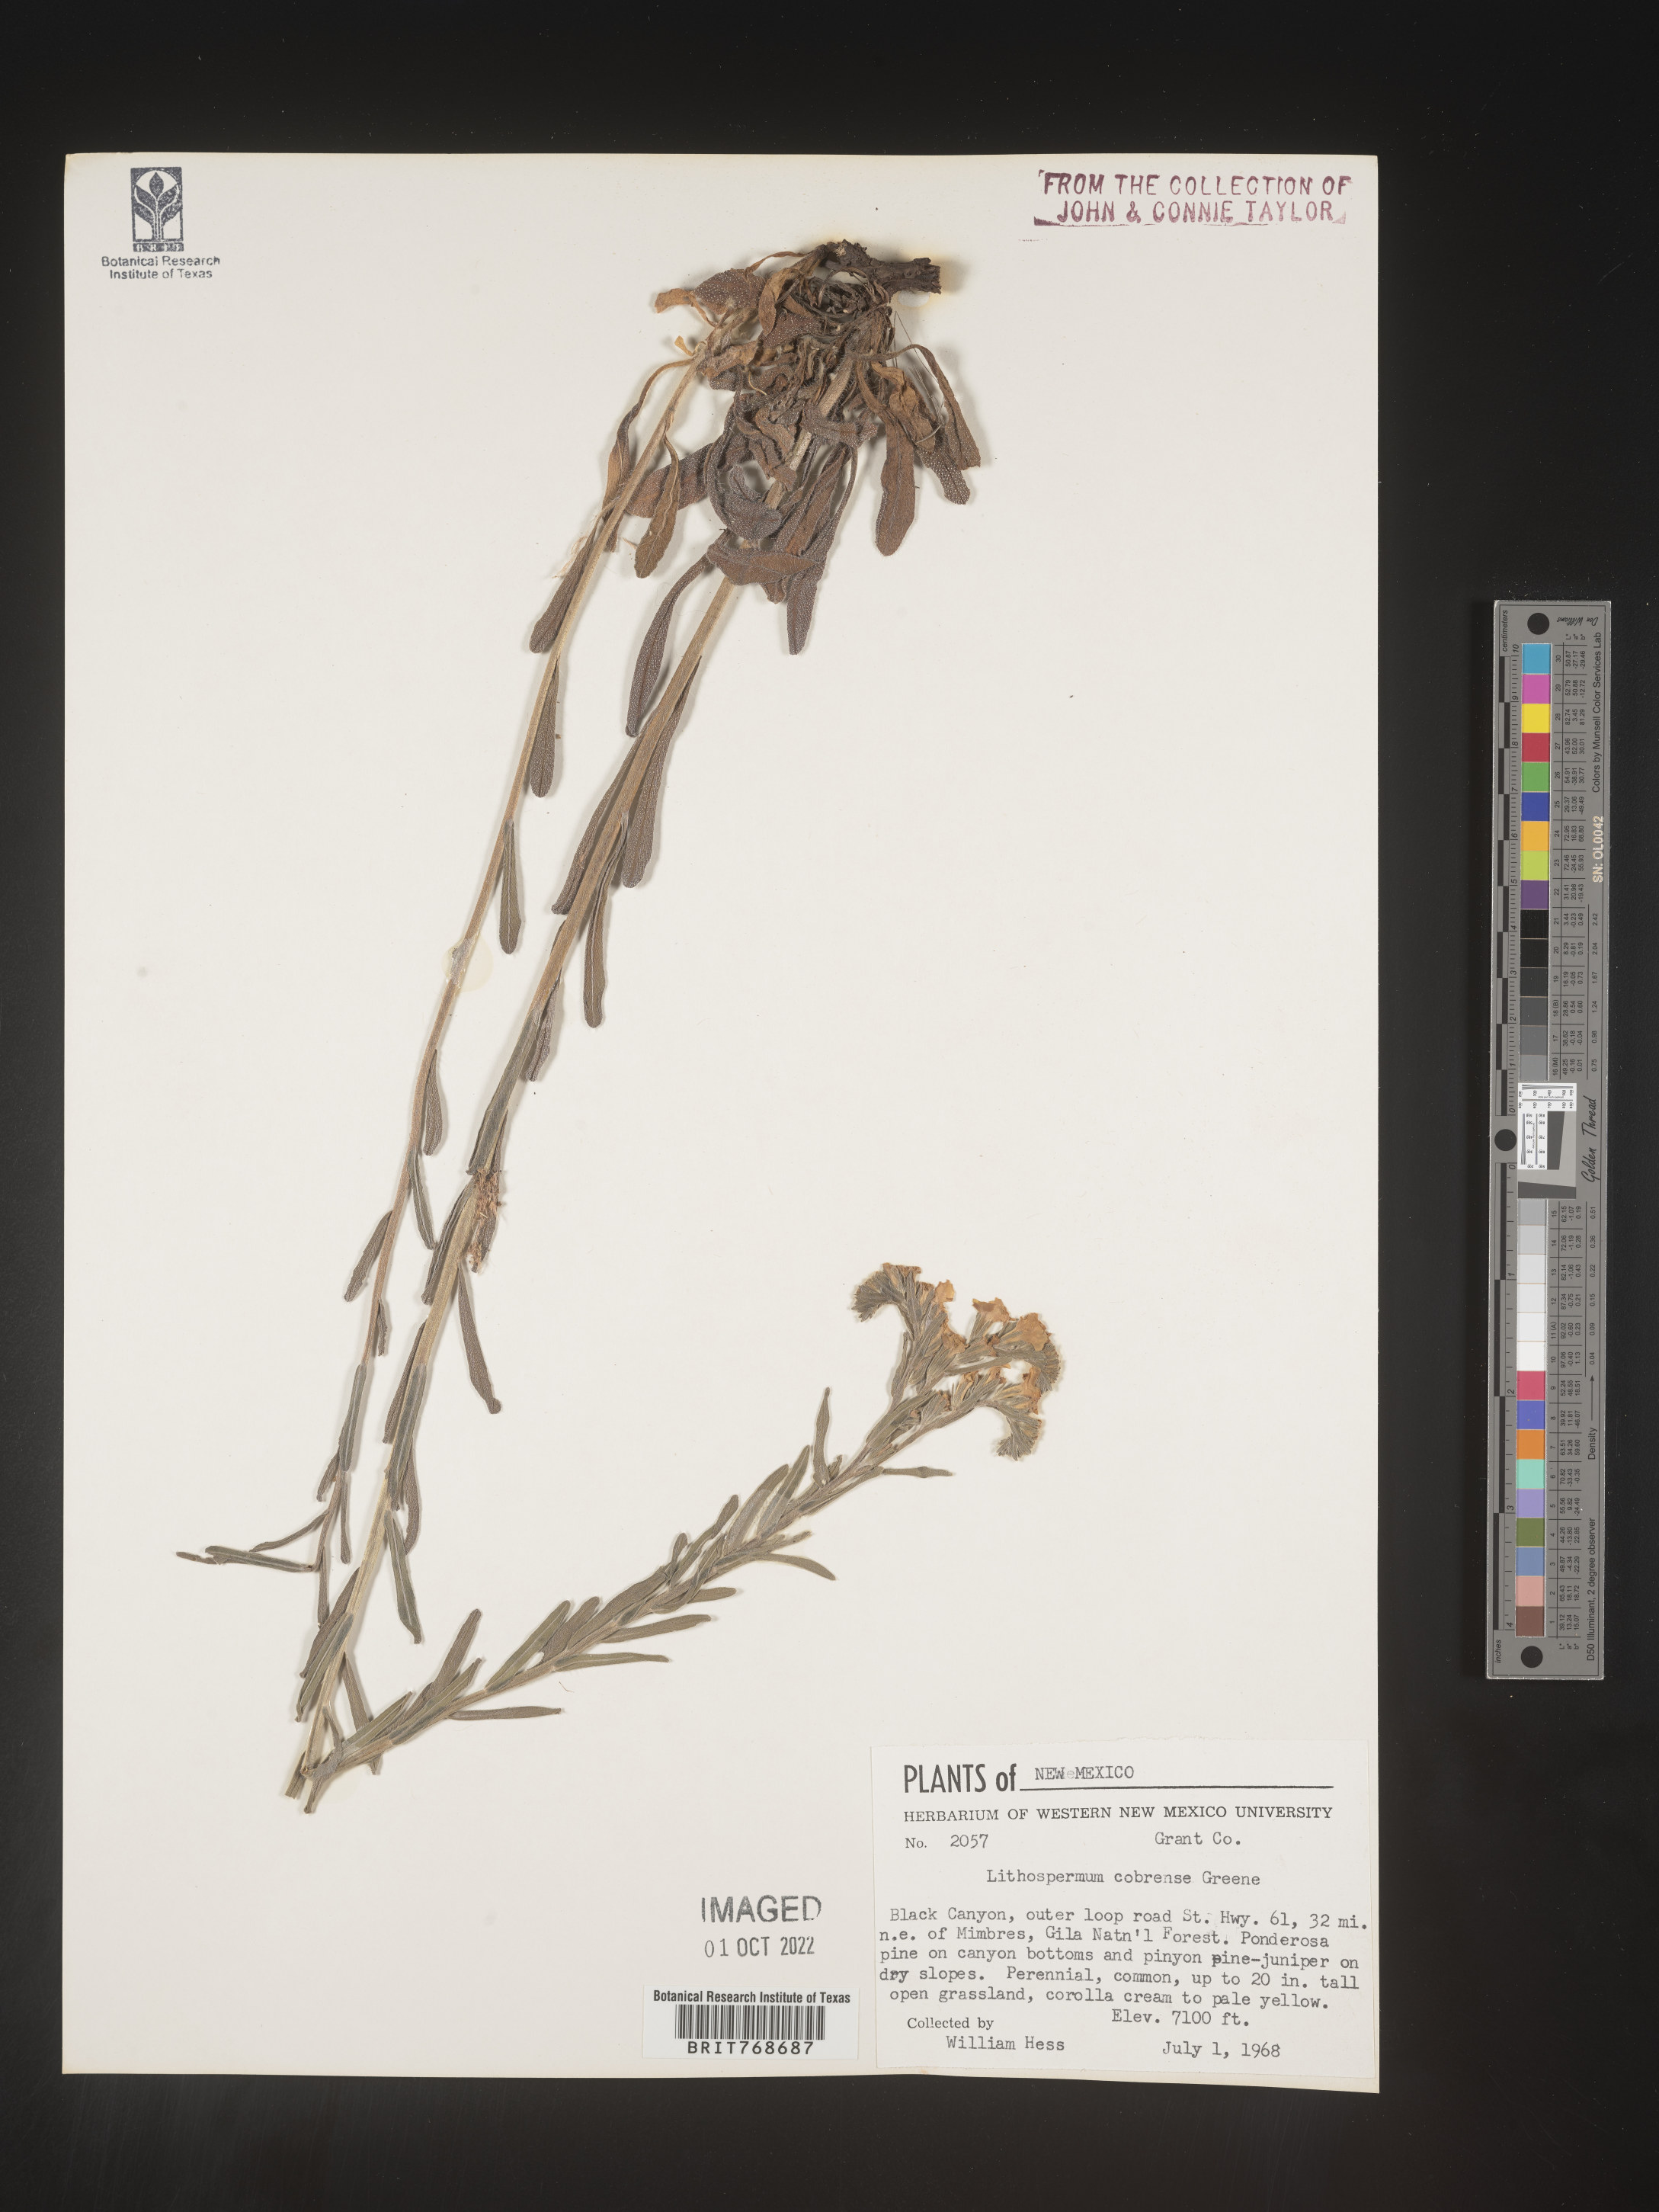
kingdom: Plantae
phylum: Tracheophyta
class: Magnoliopsida
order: Boraginales
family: Boraginaceae
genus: Lithospermum
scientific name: Lithospermum cobrense
